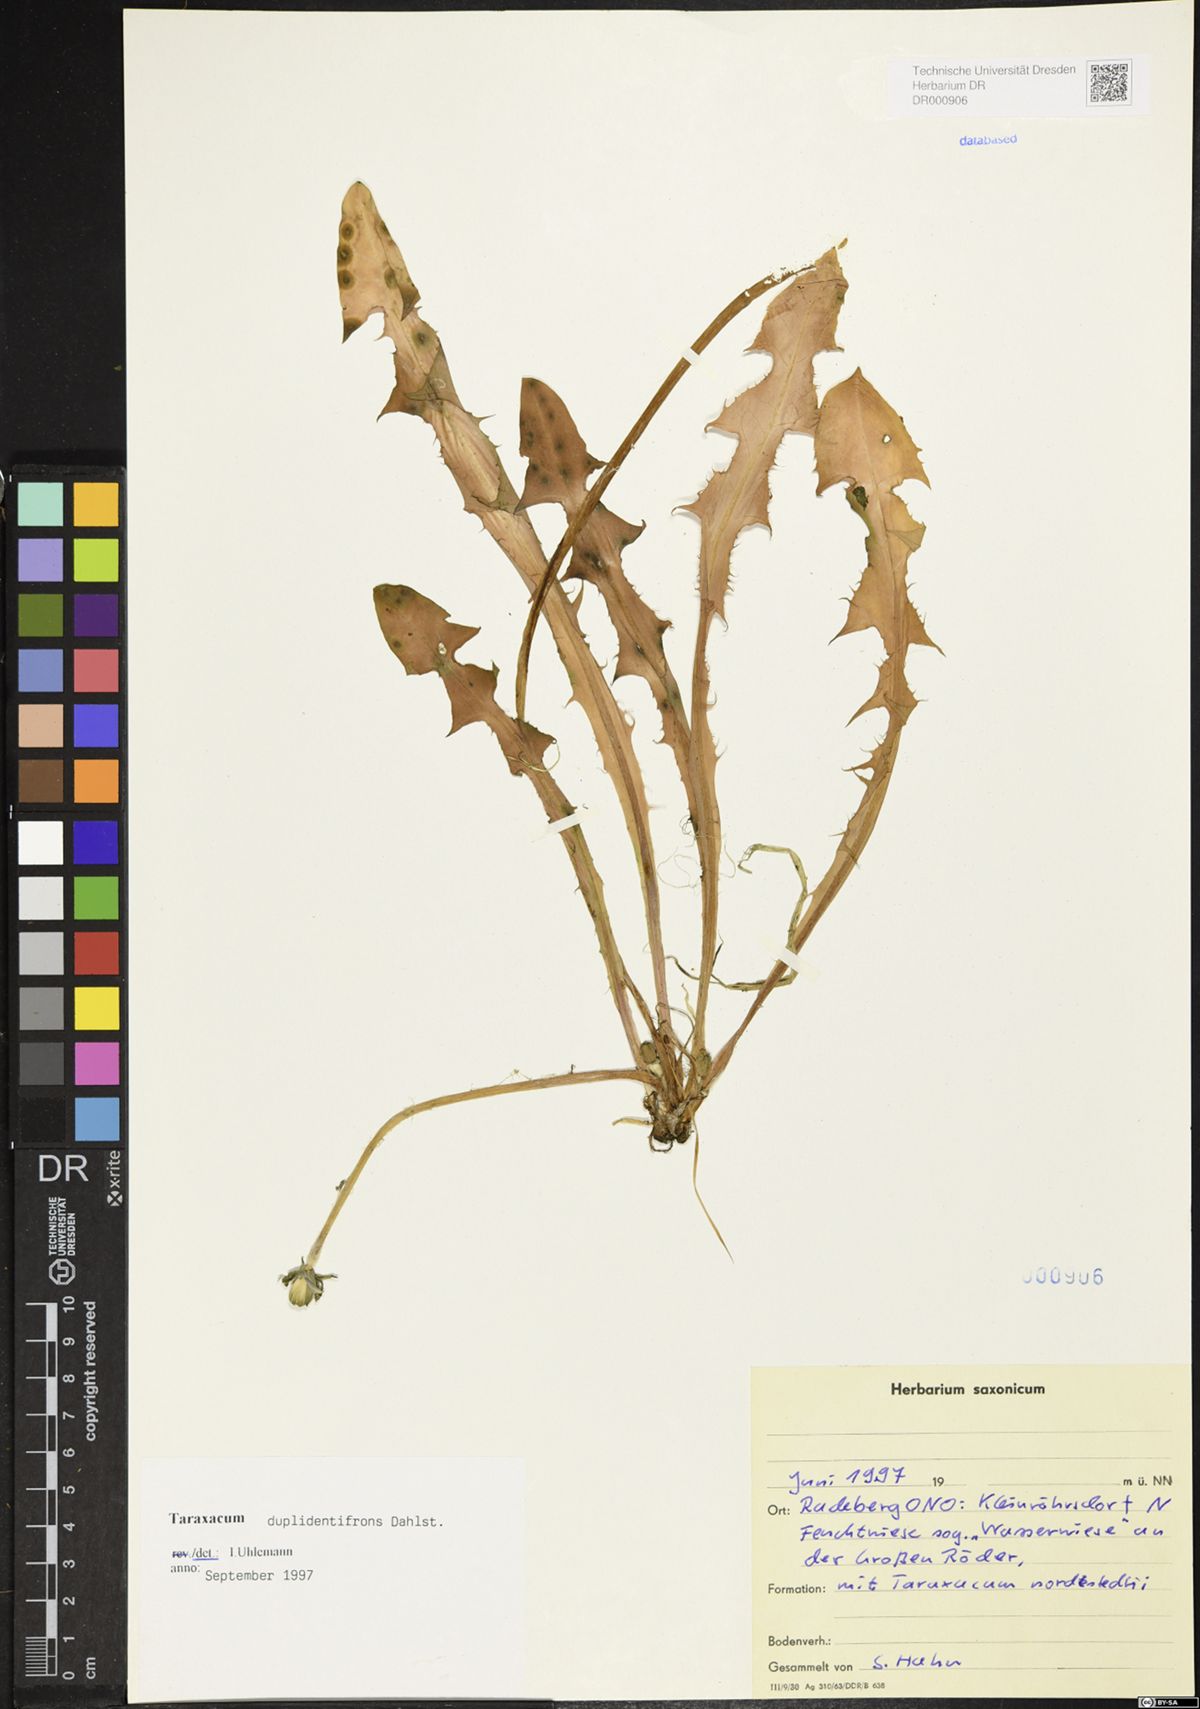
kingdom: Plantae
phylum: Tracheophyta
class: Magnoliopsida
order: Asterales
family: Asteraceae
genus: Taraxacum
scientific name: Taraxacum duplidentifrons
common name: Double-toothed dandelion
